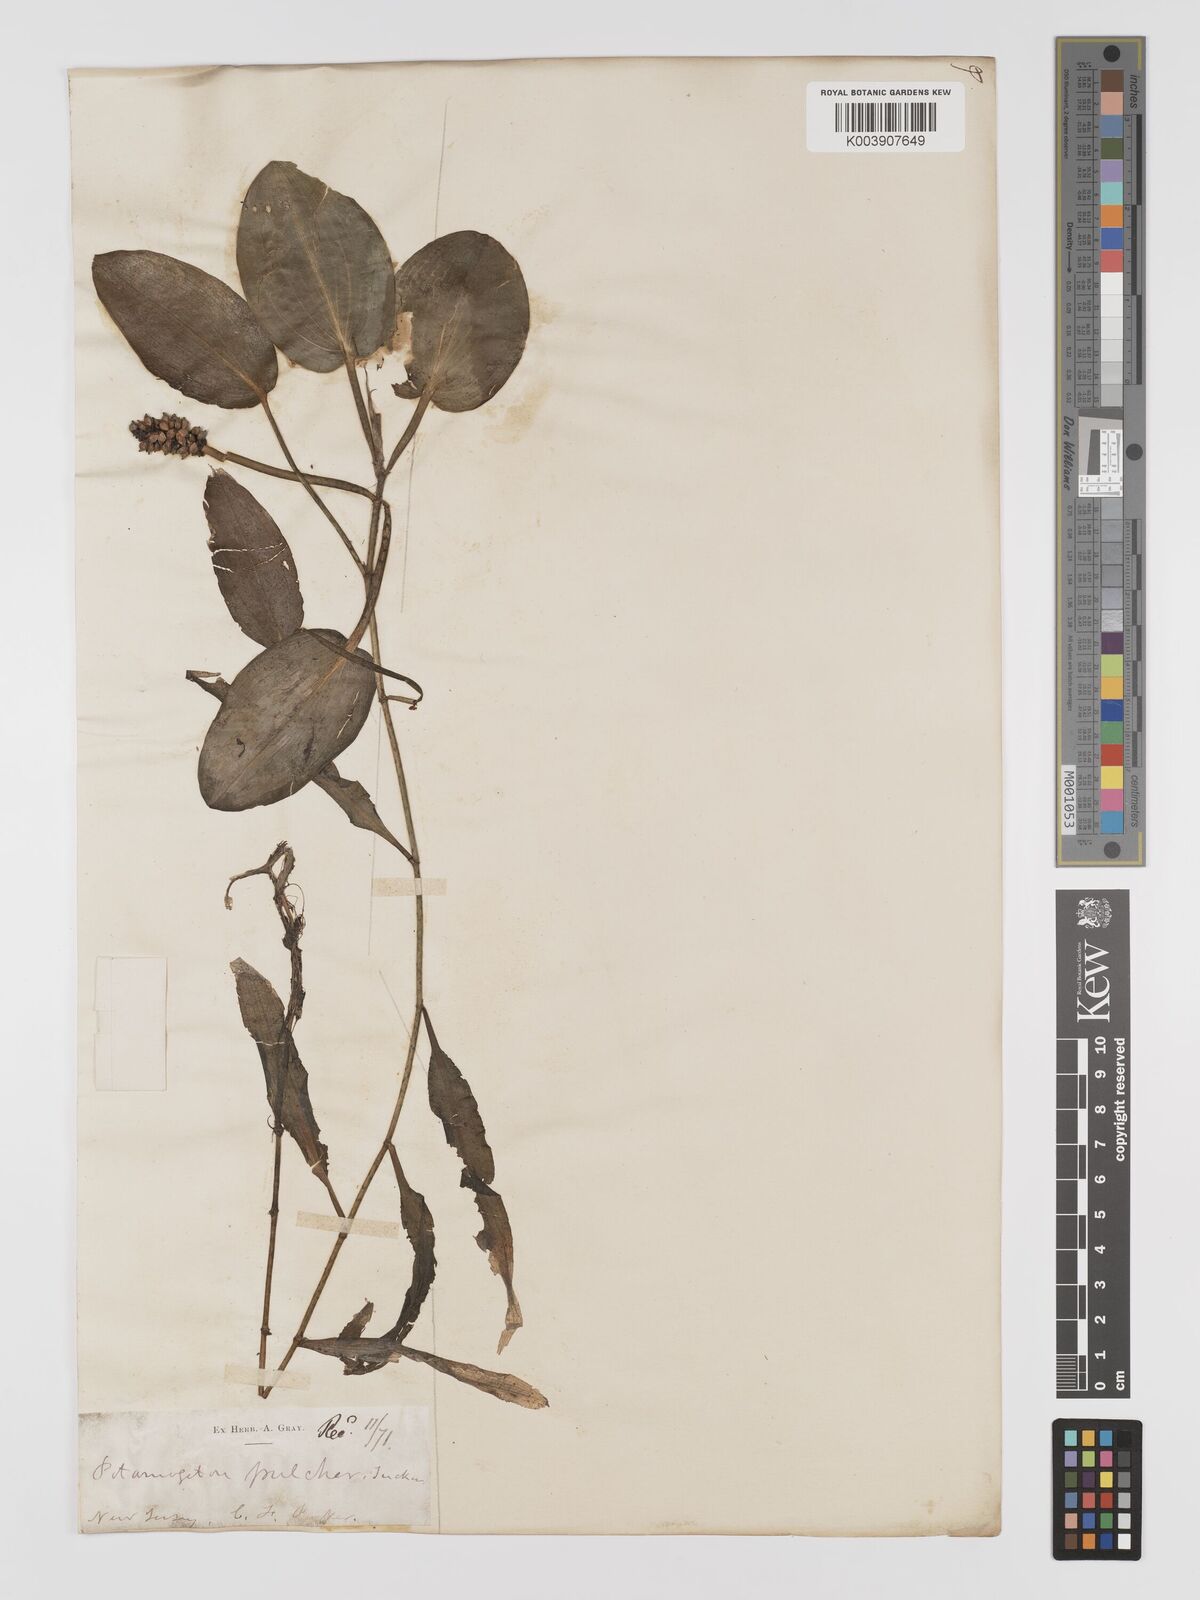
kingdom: Plantae
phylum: Tracheophyta
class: Liliopsida
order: Alismatales
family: Potamogetonaceae
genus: Potamogeton
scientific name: Potamogeton pulcher
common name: Heart-leaved pondweed
